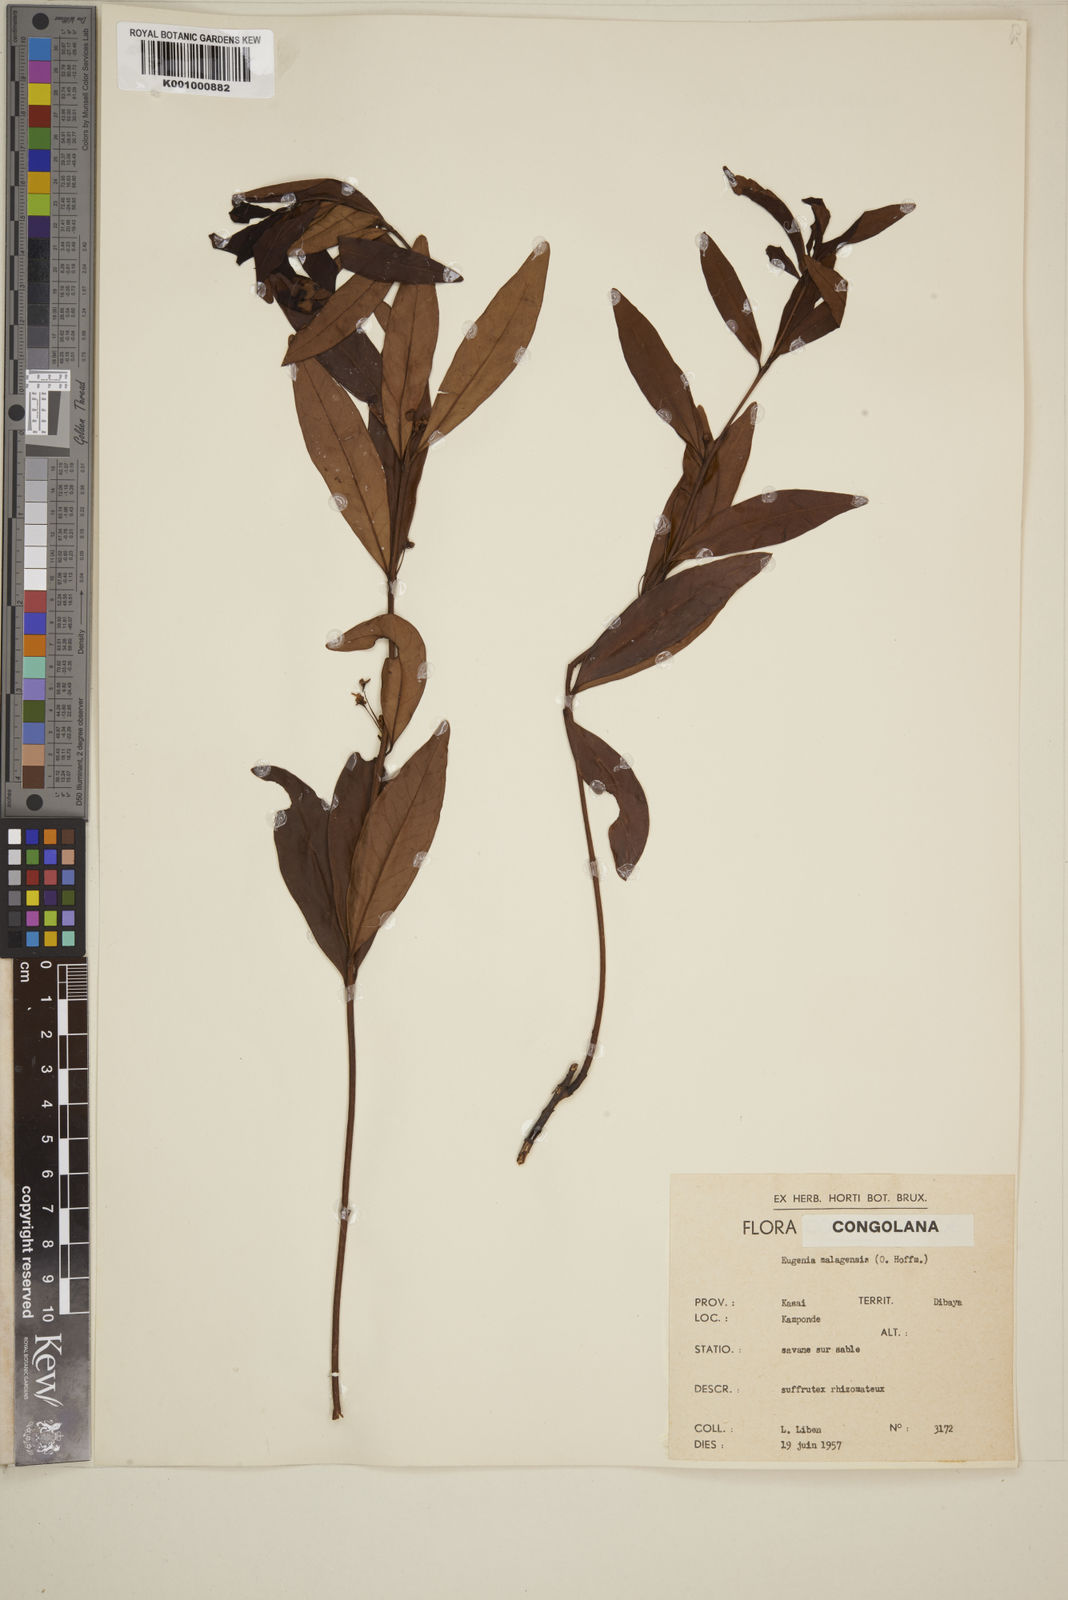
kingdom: Plantae
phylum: Tracheophyta
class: Magnoliopsida
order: Myrtales
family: Myrtaceae
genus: Eugenia
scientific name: Eugenia malangensis
